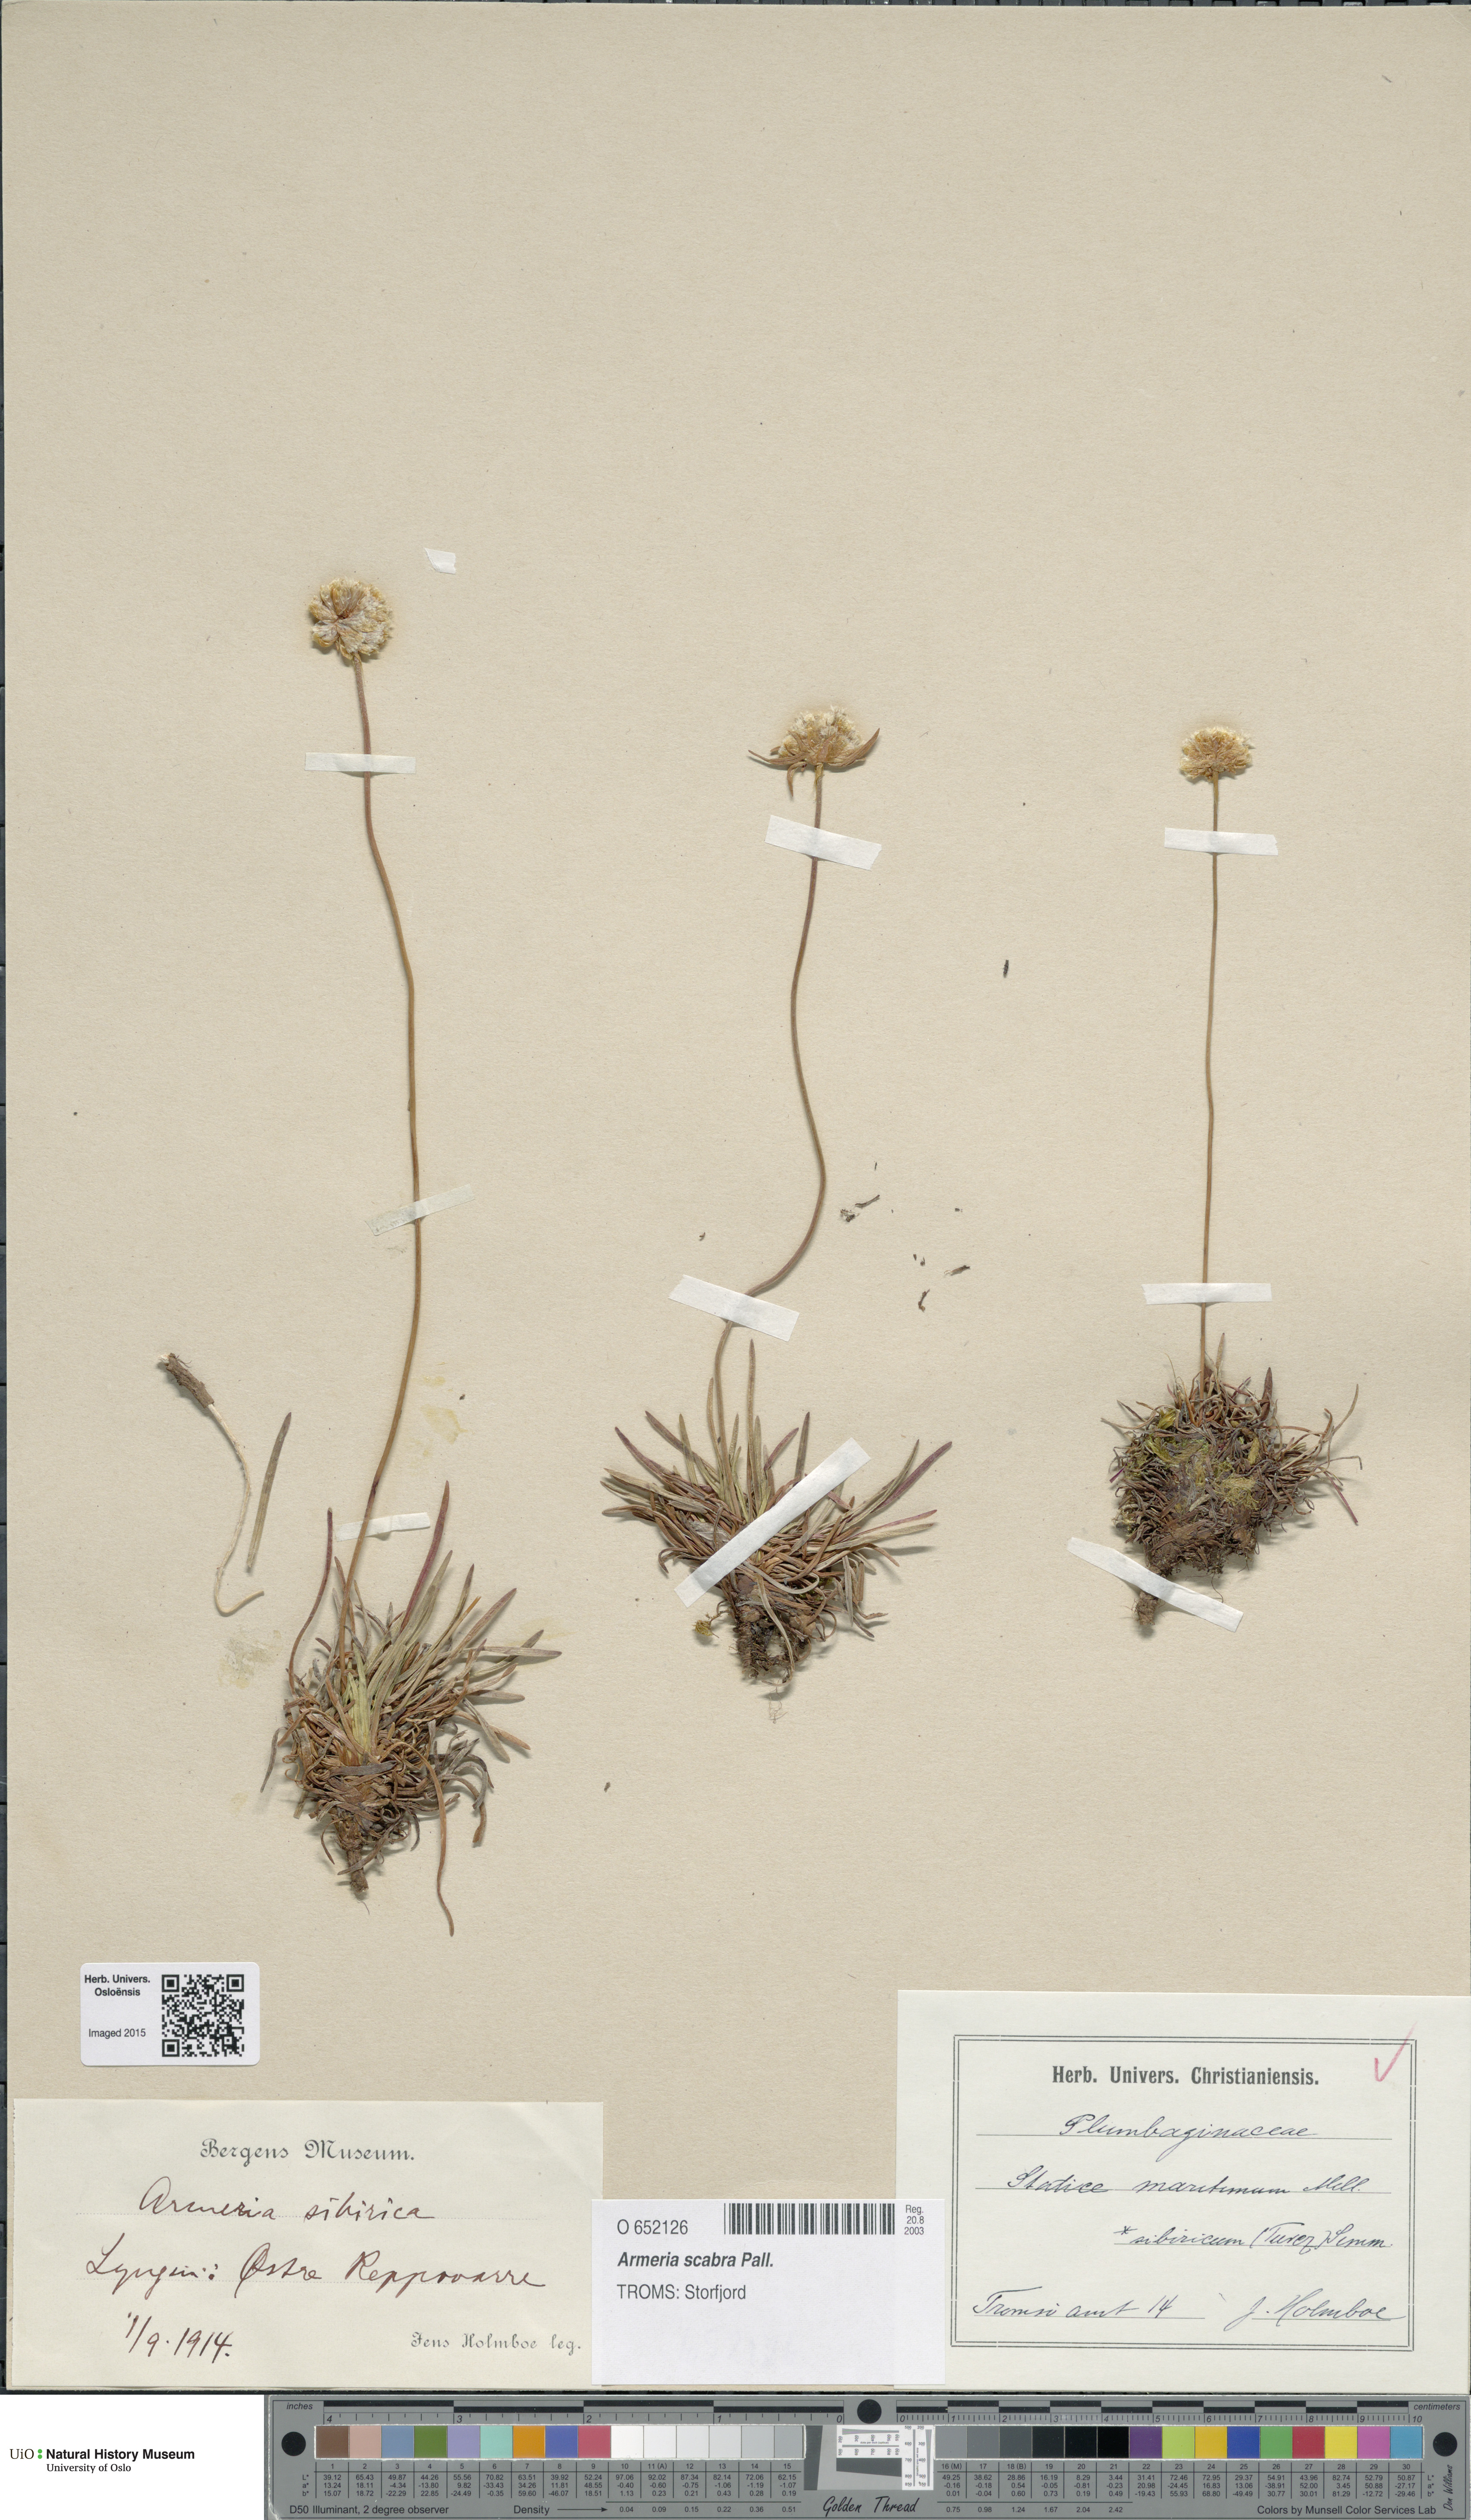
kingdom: Plantae
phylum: Tracheophyta
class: Magnoliopsida
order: Caryophyllales
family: Plumbaginaceae
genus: Armeria
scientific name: Armeria maritima
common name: Thrift
